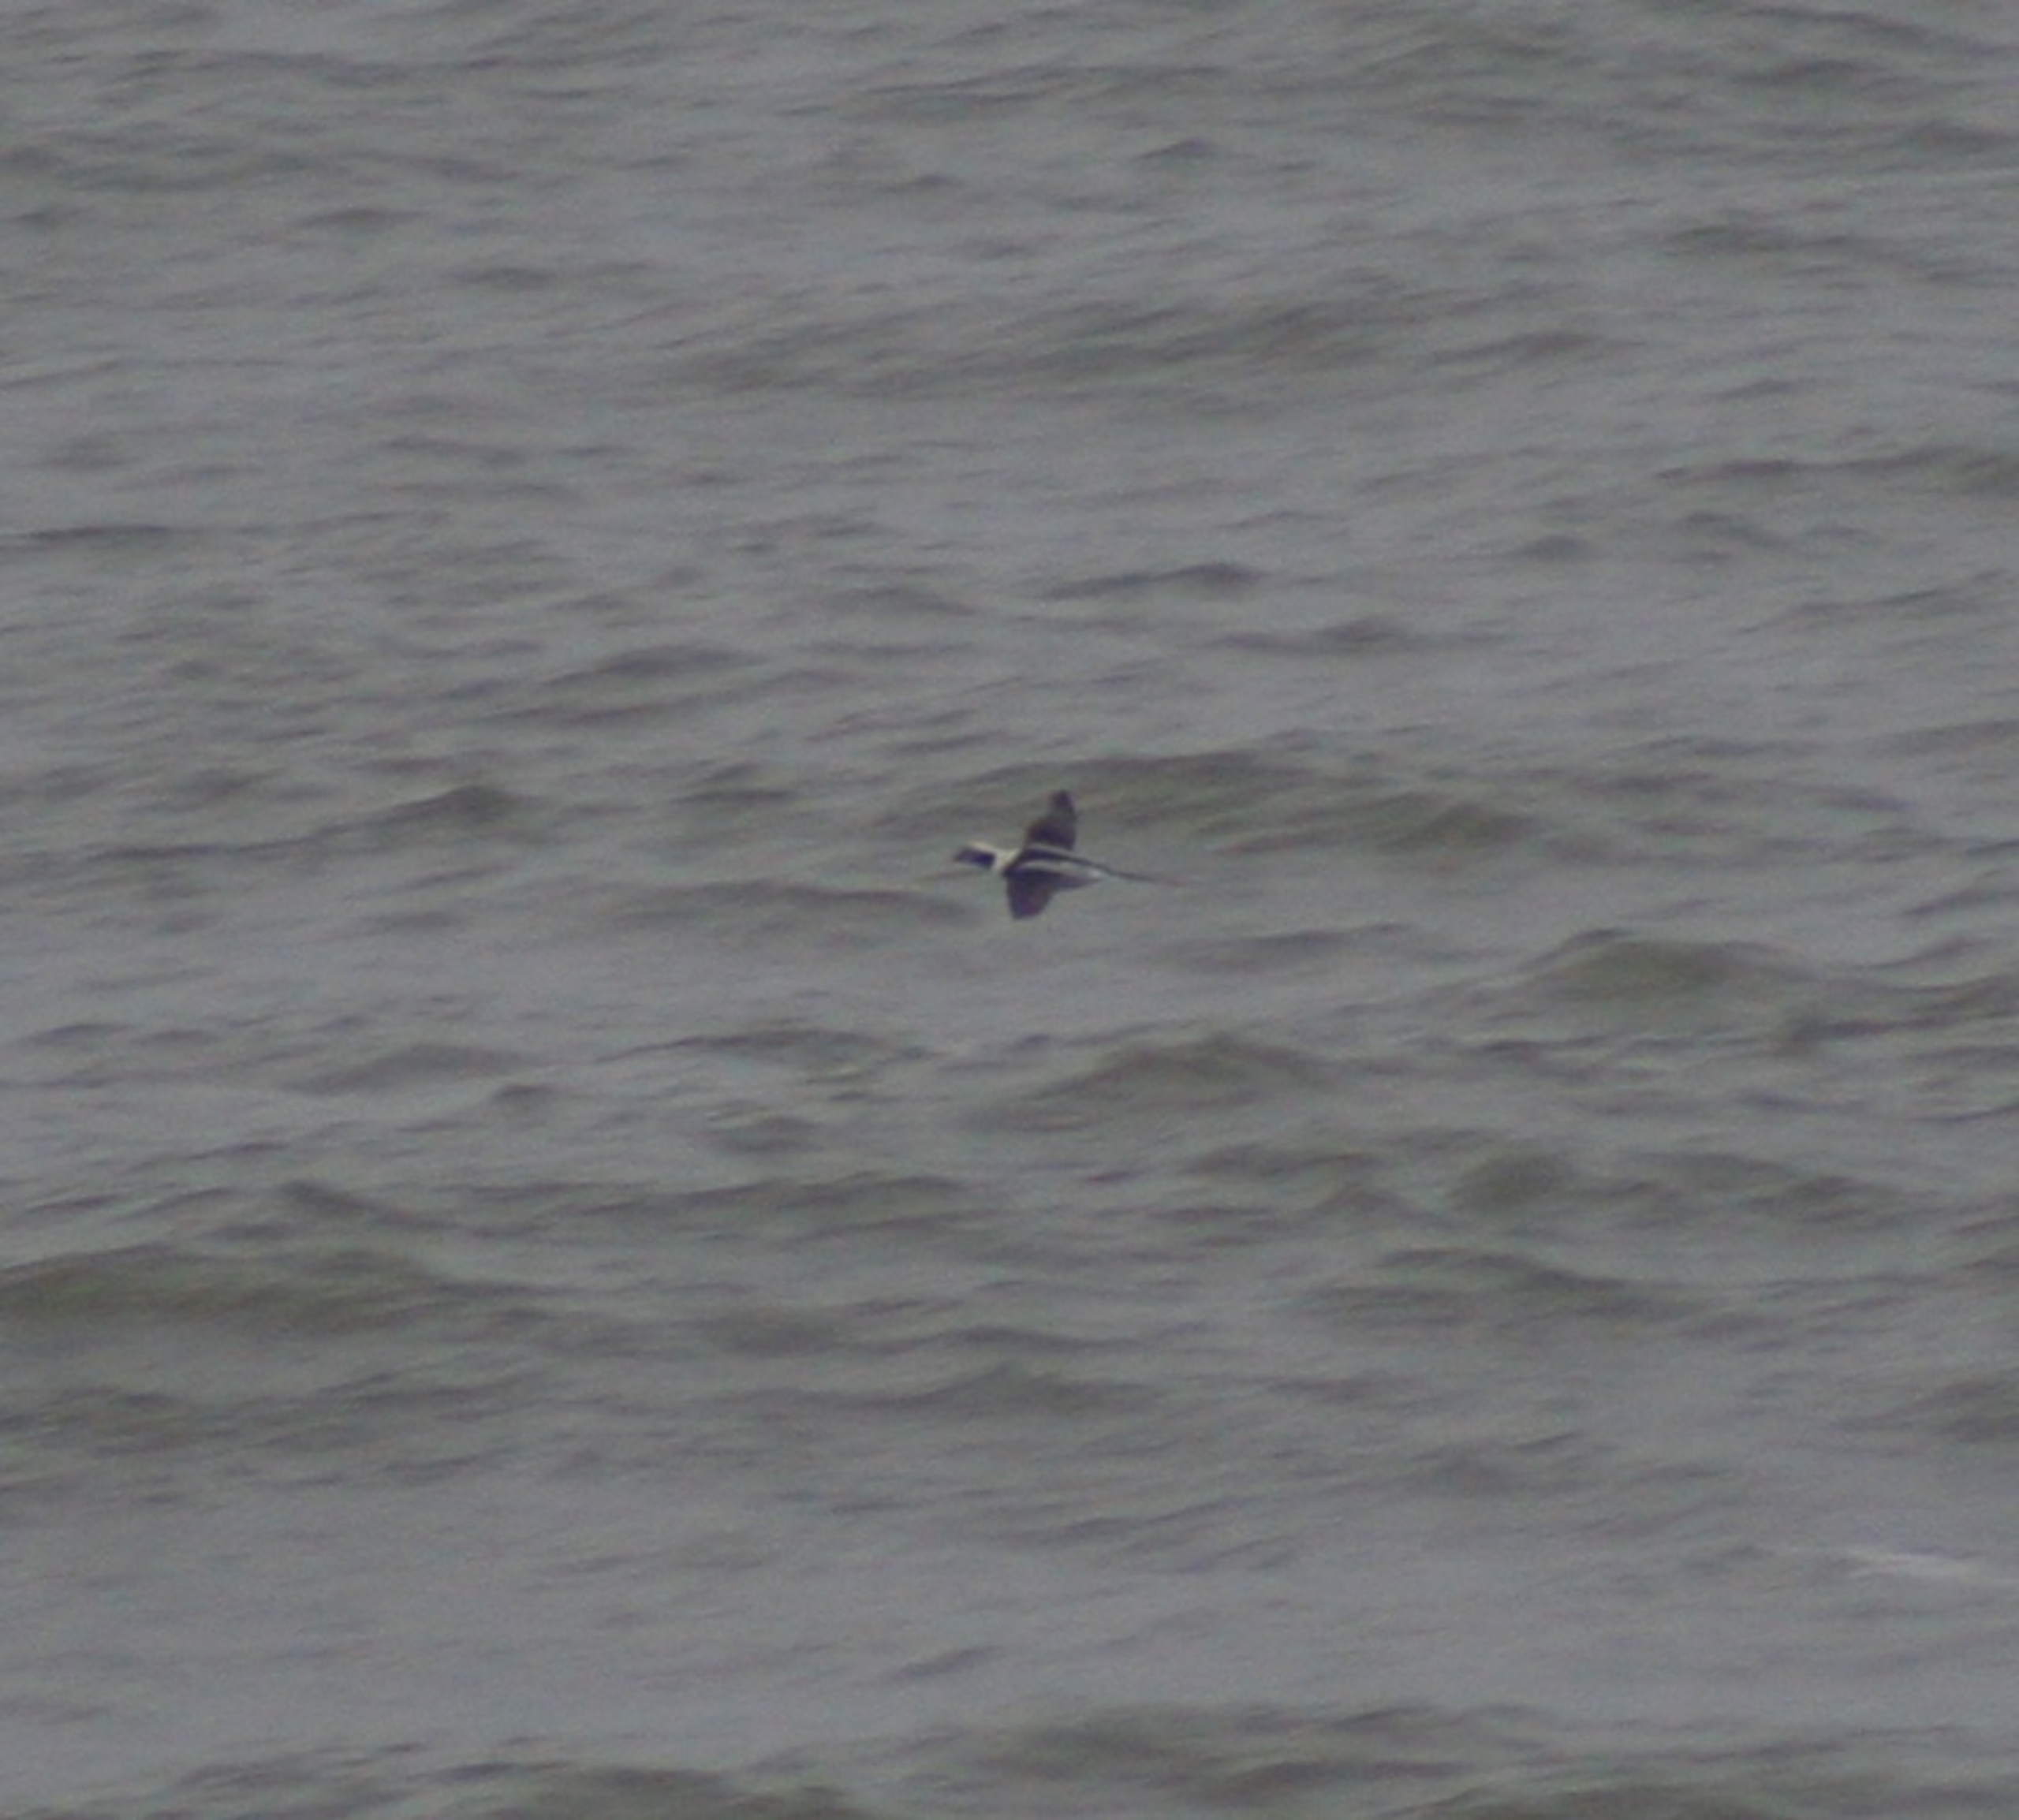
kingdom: Animalia
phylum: Chordata
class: Aves
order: Anseriformes
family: Anatidae
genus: Clangula
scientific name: Clangula hyemalis
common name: Havlit
